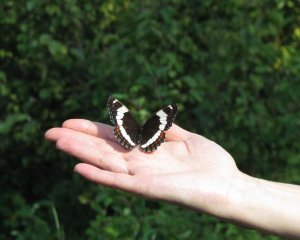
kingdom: Animalia
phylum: Arthropoda
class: Insecta
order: Lepidoptera
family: Nymphalidae
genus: Limenitis
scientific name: Limenitis arthemis
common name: Red-spotted Admiral
